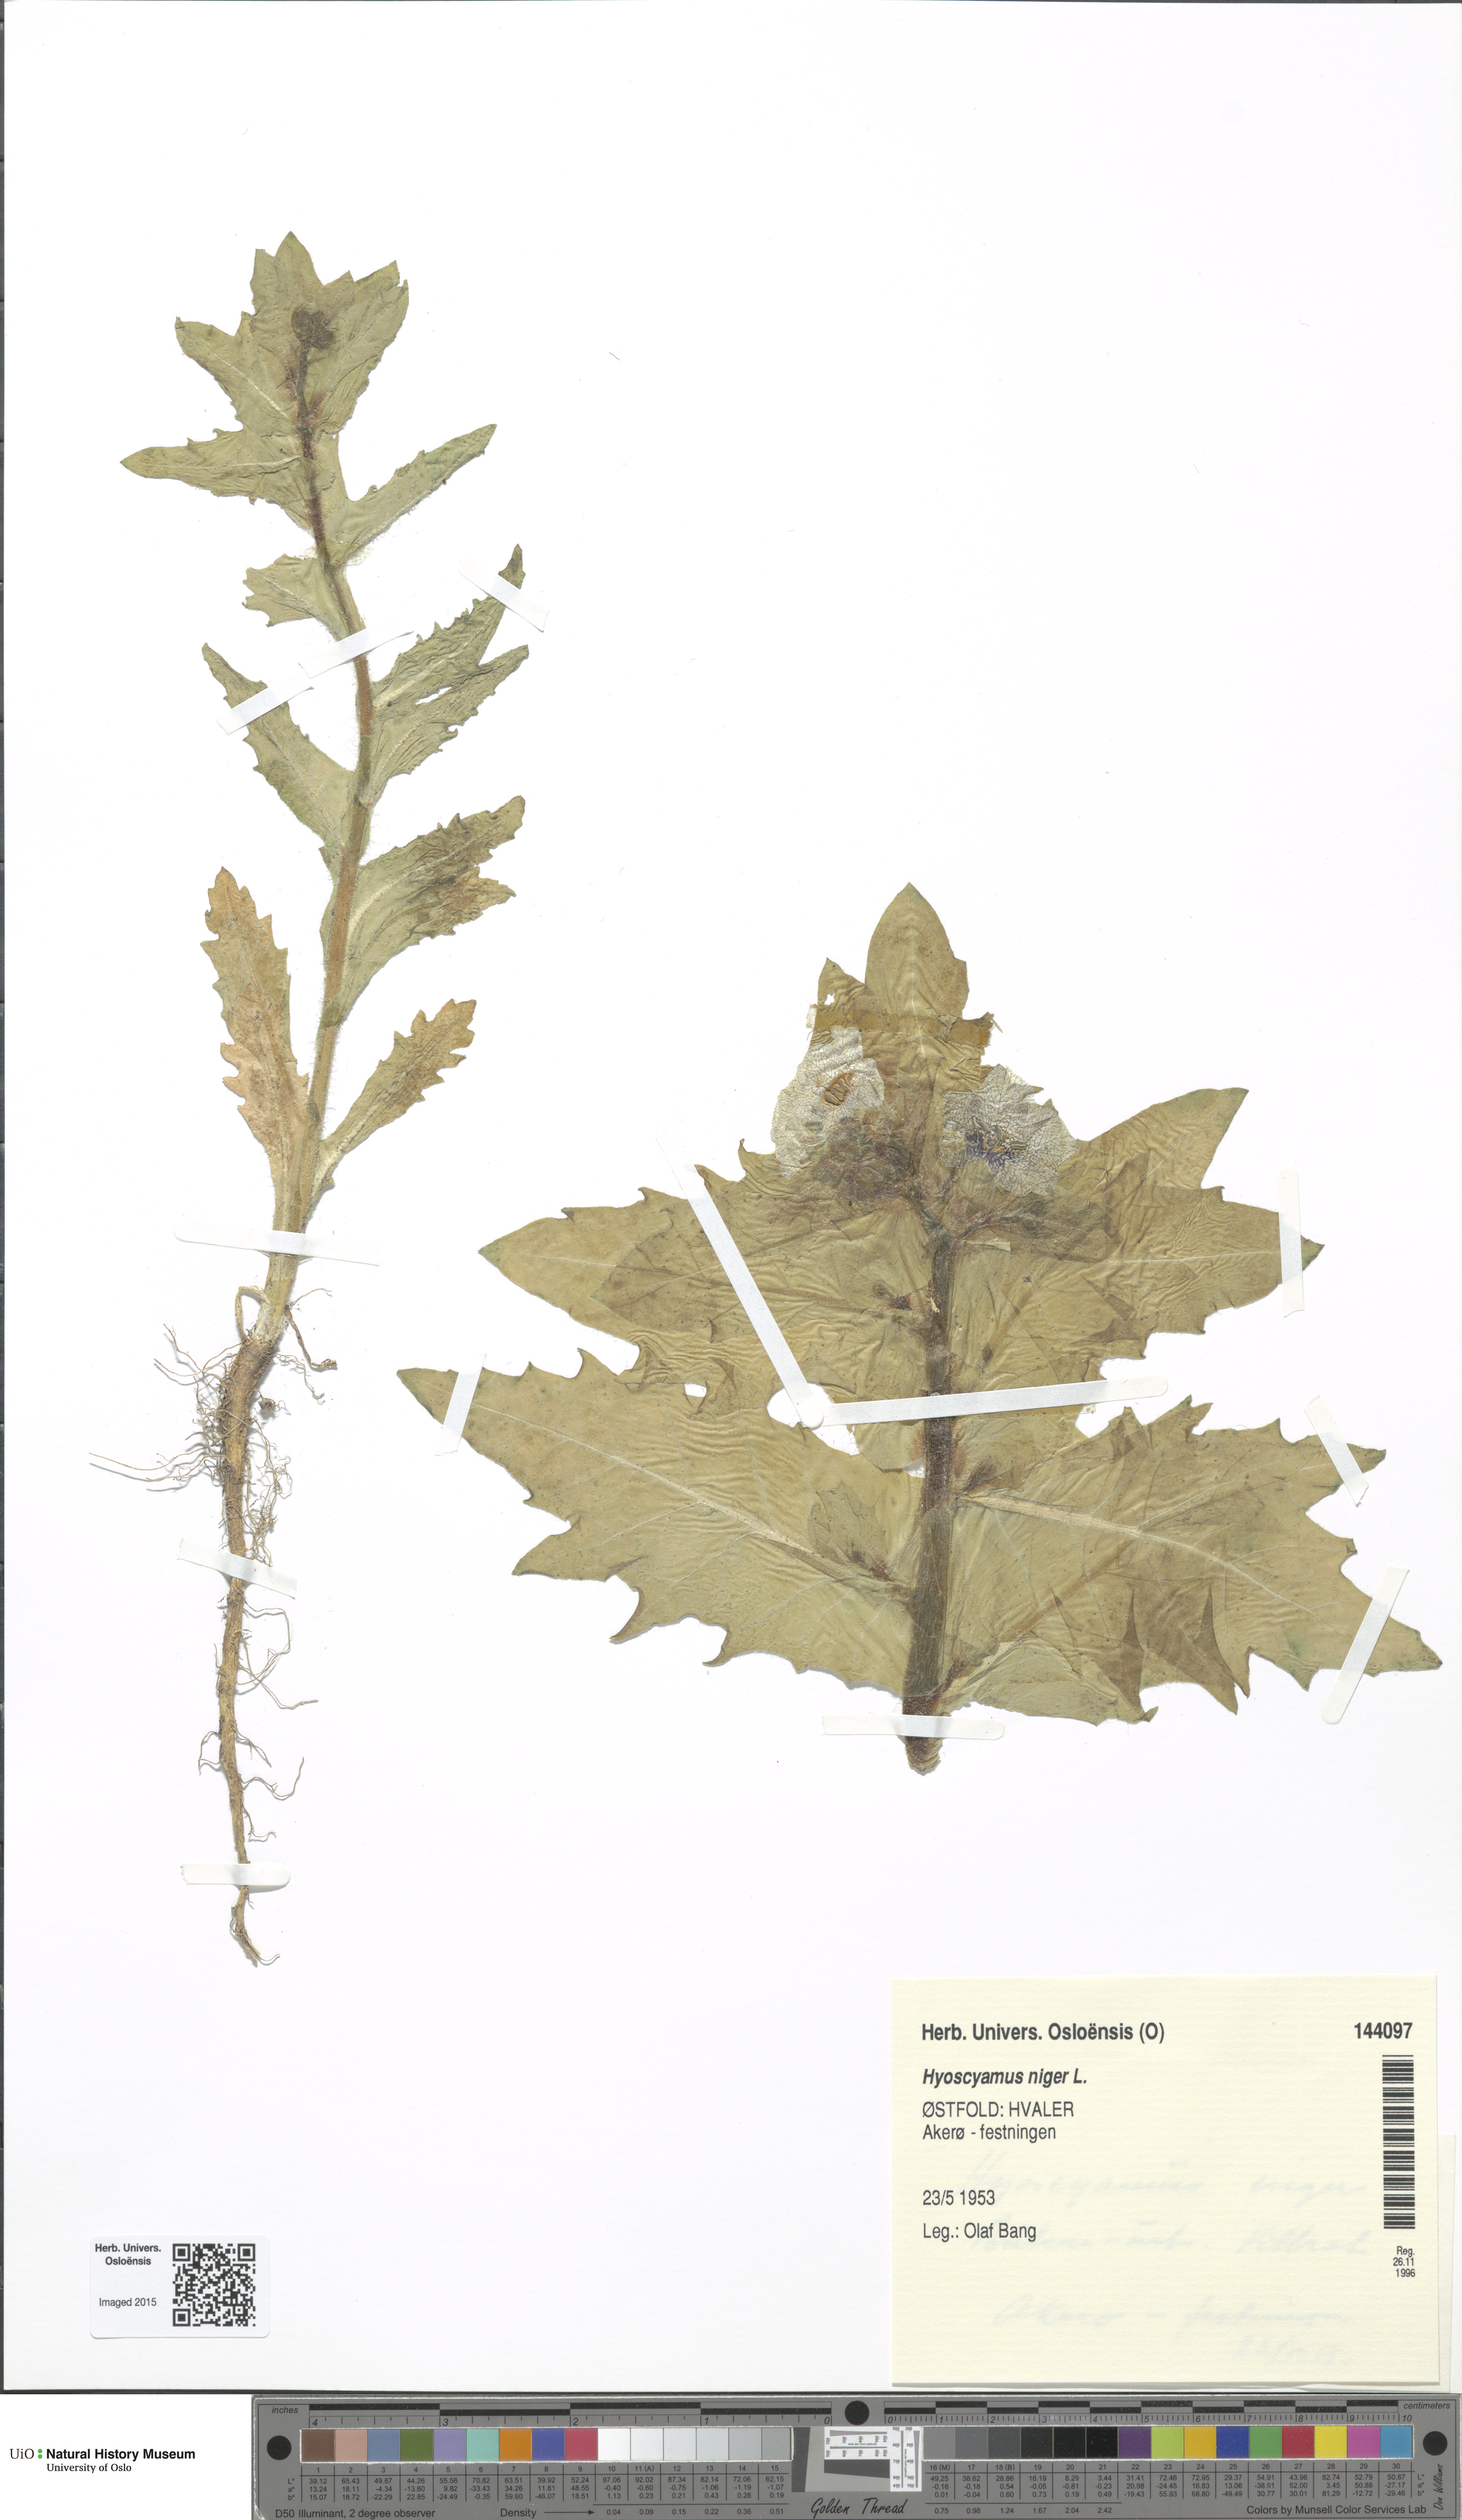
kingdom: Plantae
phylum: Tracheophyta
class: Magnoliopsida
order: Solanales
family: Solanaceae
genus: Hyoscyamus
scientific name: Hyoscyamus niger
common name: Henbane
